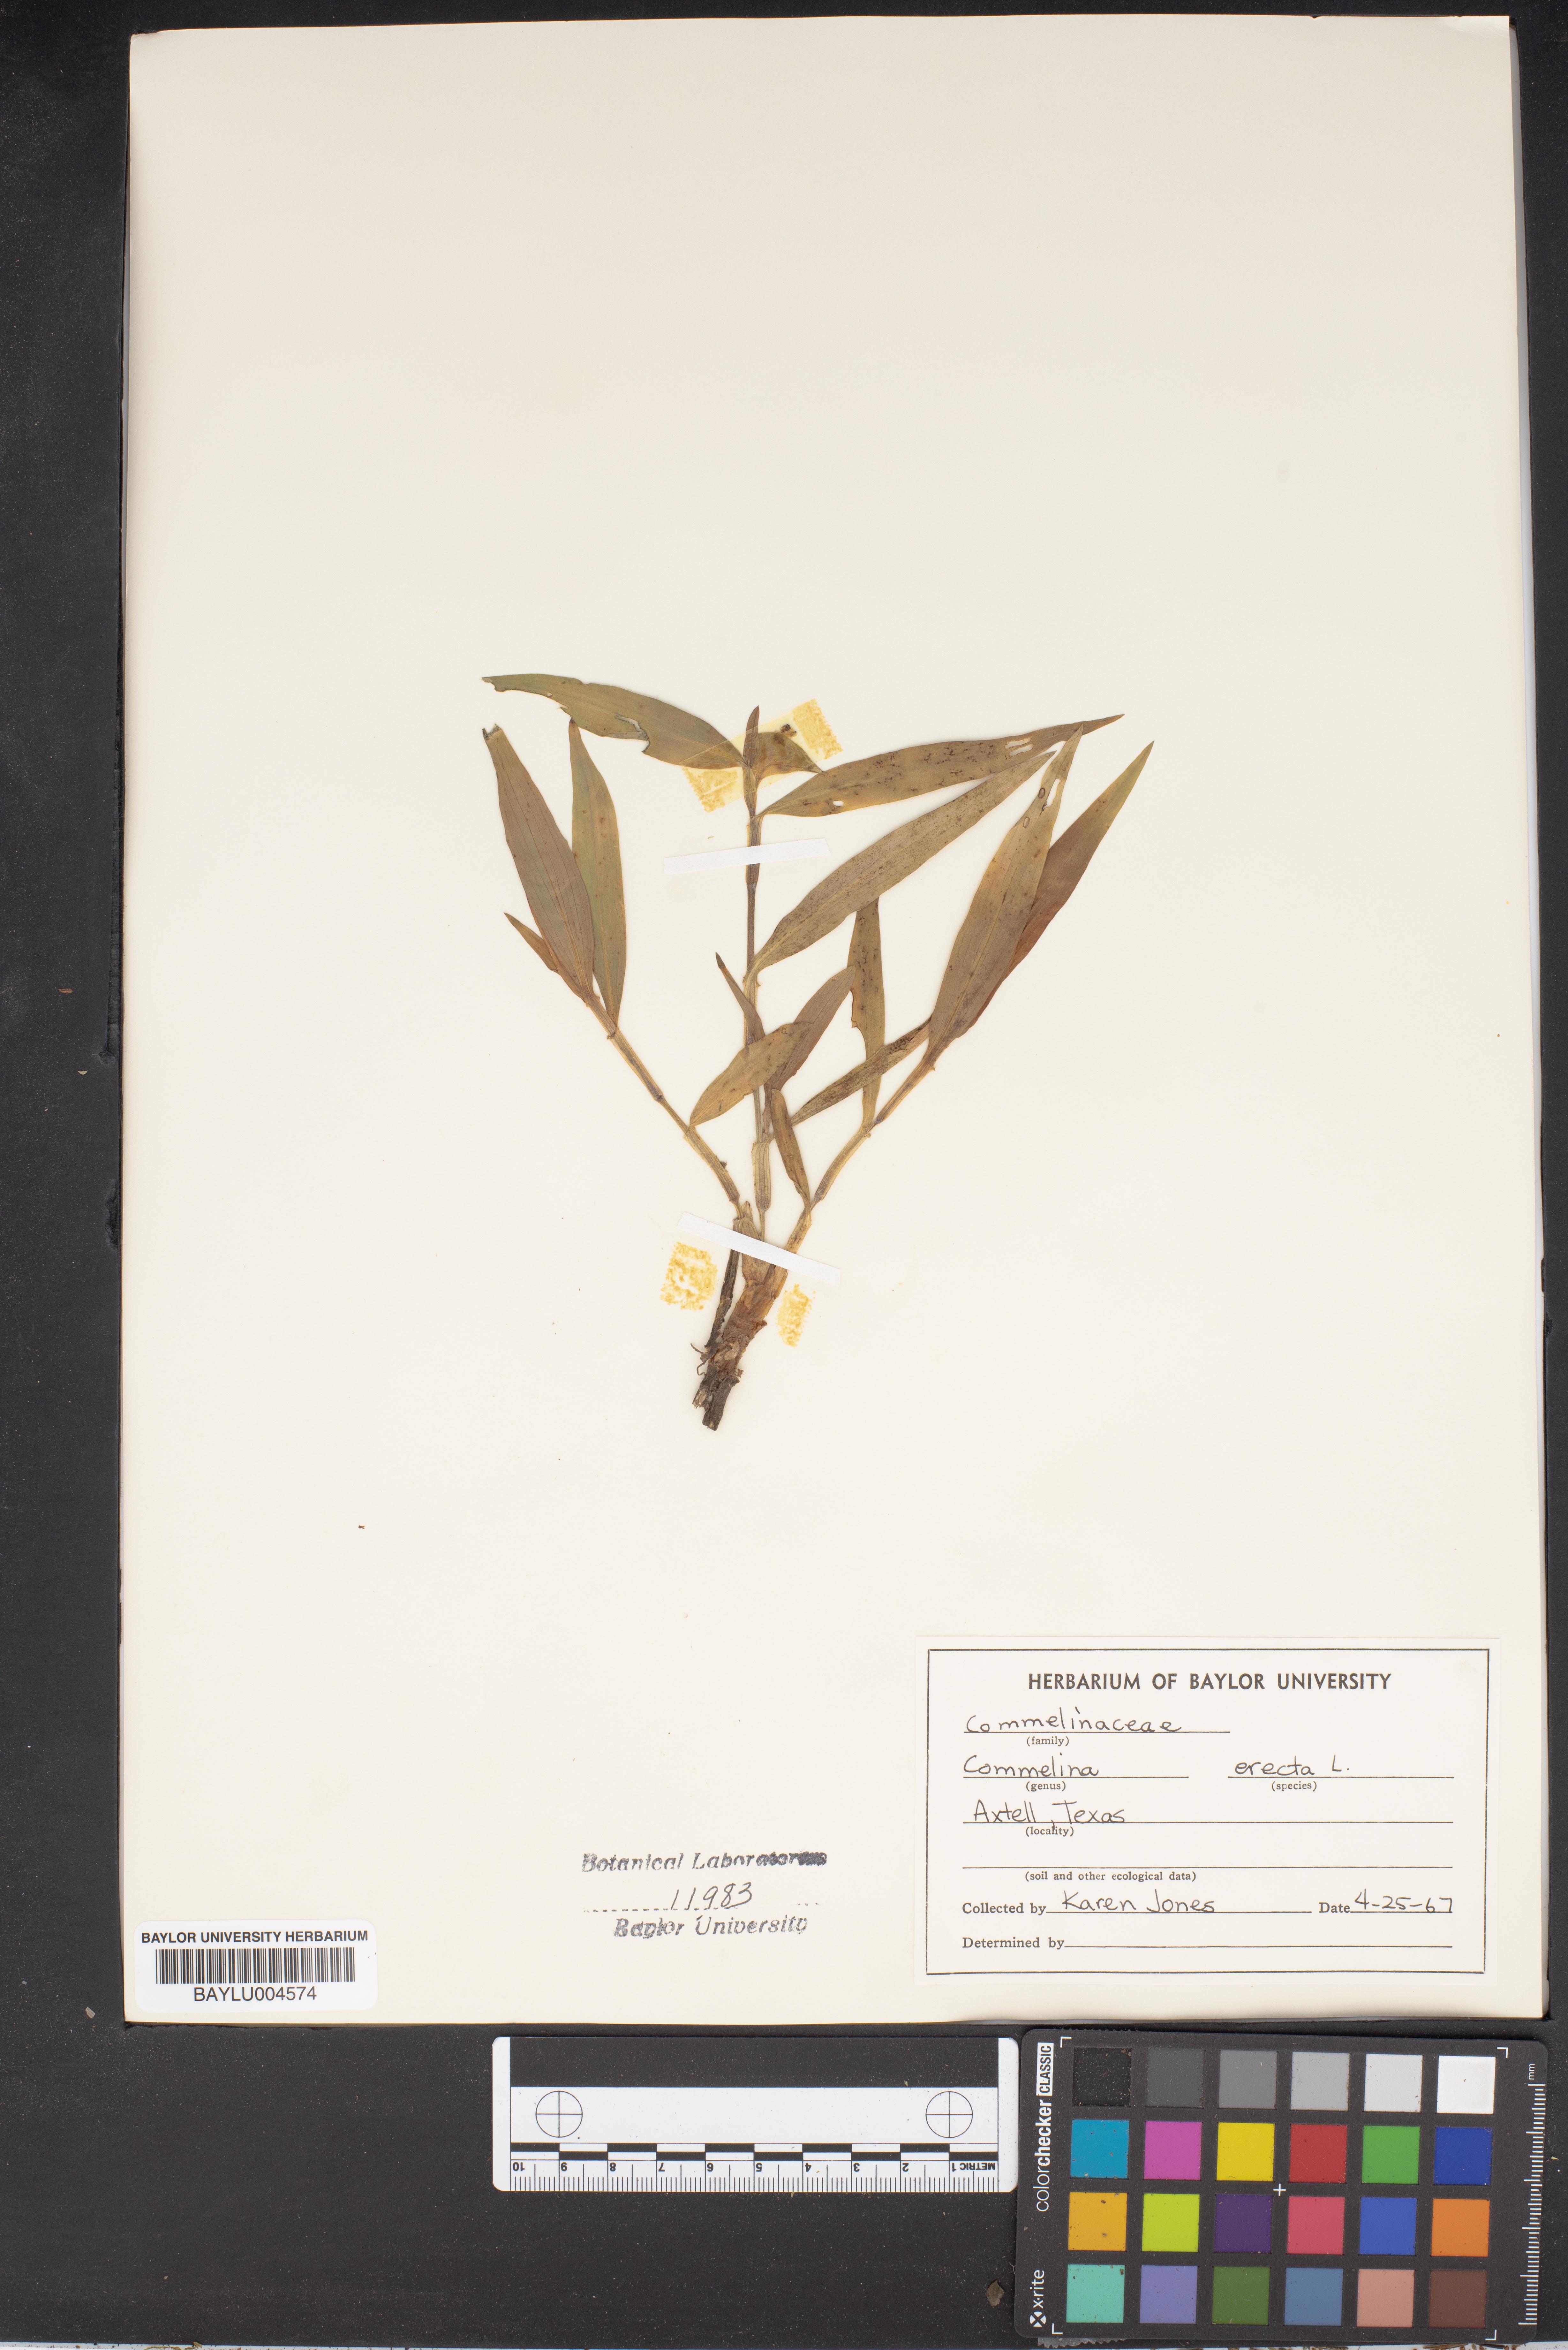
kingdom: Plantae
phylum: Tracheophyta
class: Liliopsida
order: Commelinales
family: Commelinaceae
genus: Commelina
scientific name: Commelina erecta
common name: Blousel blommetjie
